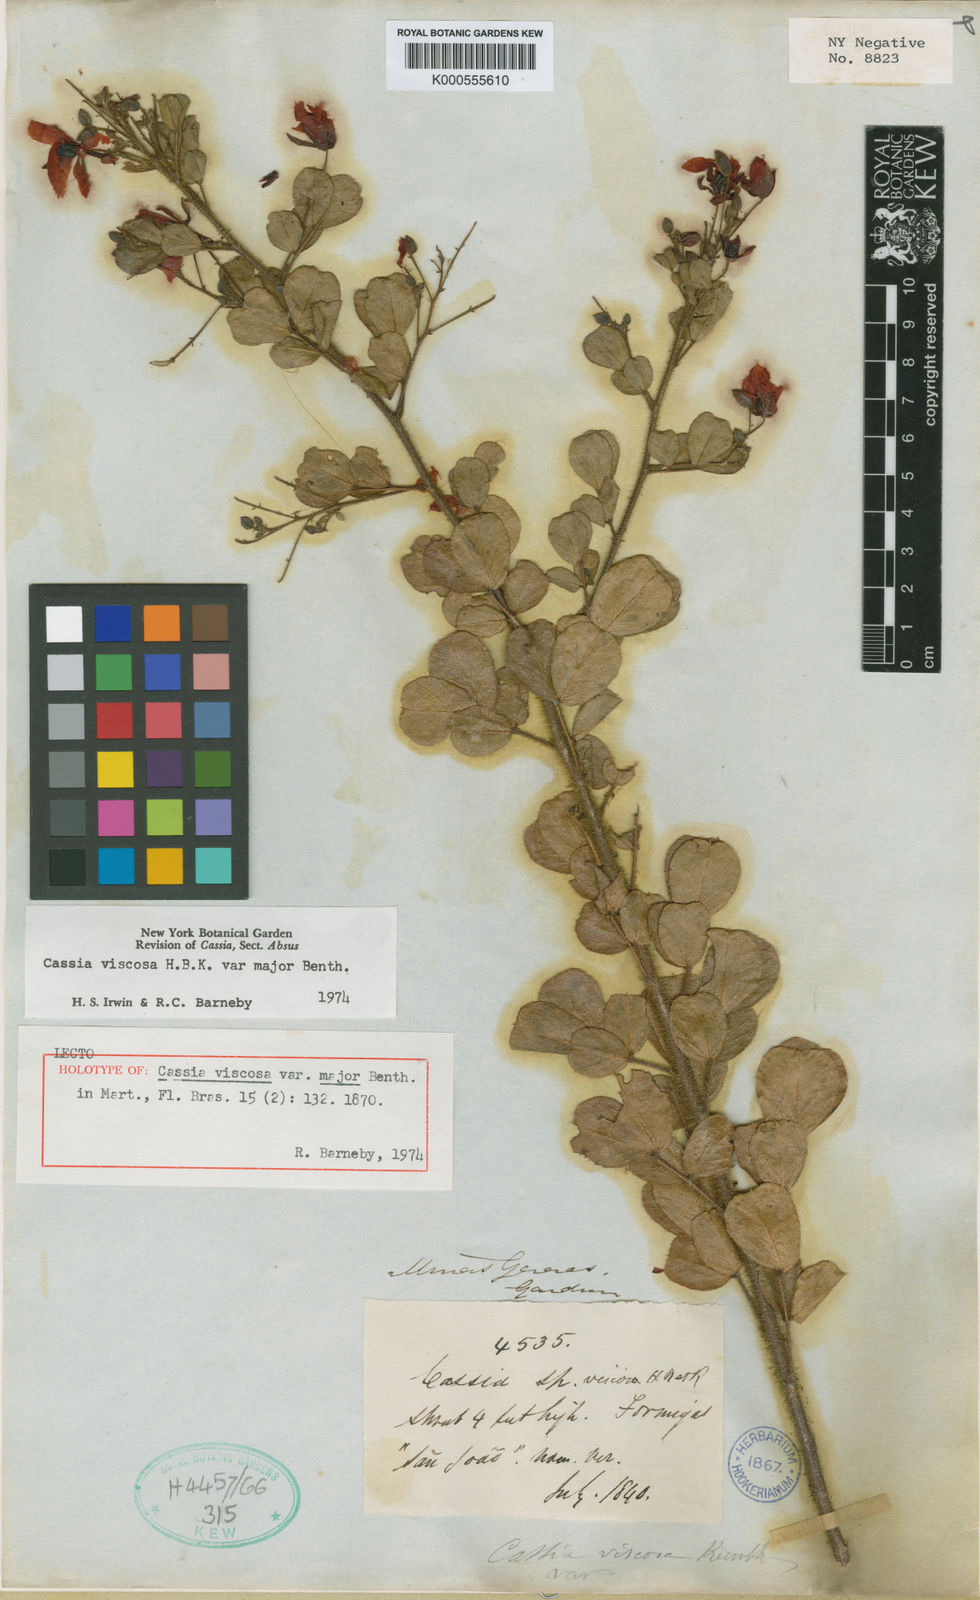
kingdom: Plantae
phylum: Tracheophyta
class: Magnoliopsida
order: Fabales
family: Fabaceae
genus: Chamaecrista
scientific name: Chamaecrista viscosa
